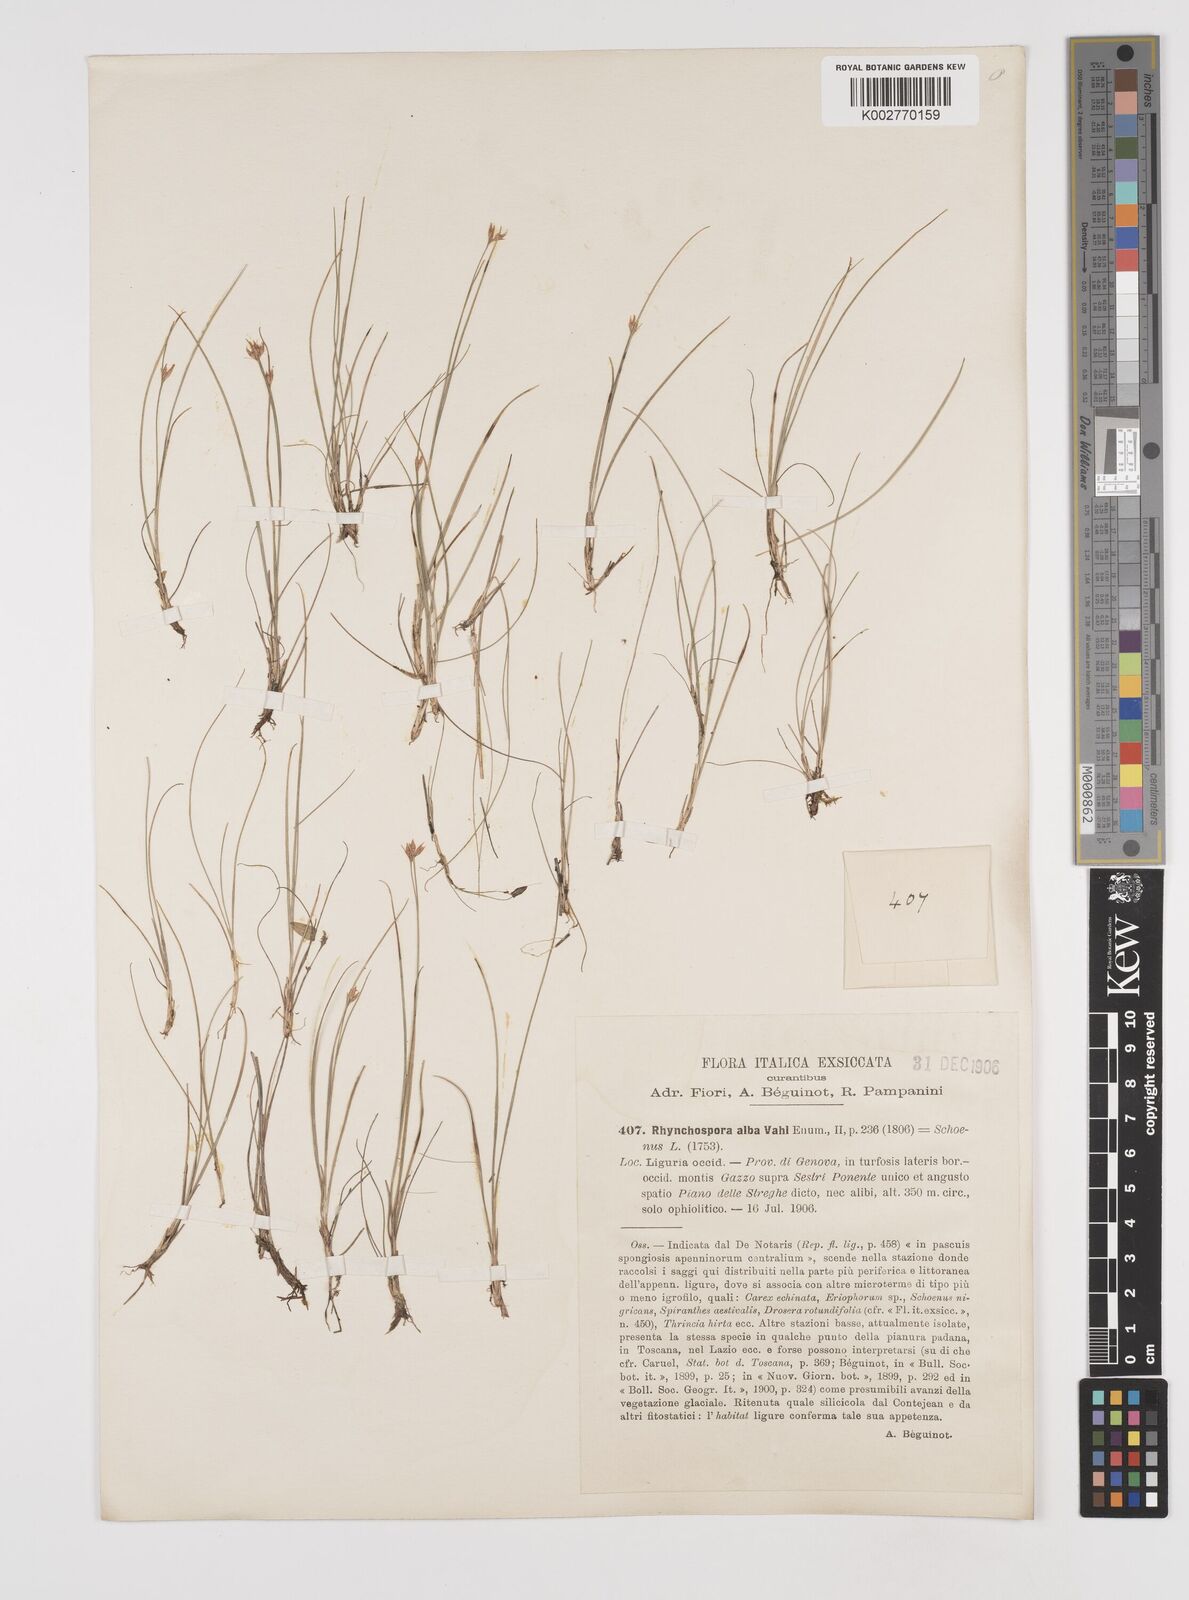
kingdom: Plantae
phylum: Tracheophyta
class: Liliopsida
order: Poales
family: Cyperaceae
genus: Rhynchospora
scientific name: Rhynchospora alba
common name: White beak-sedge
